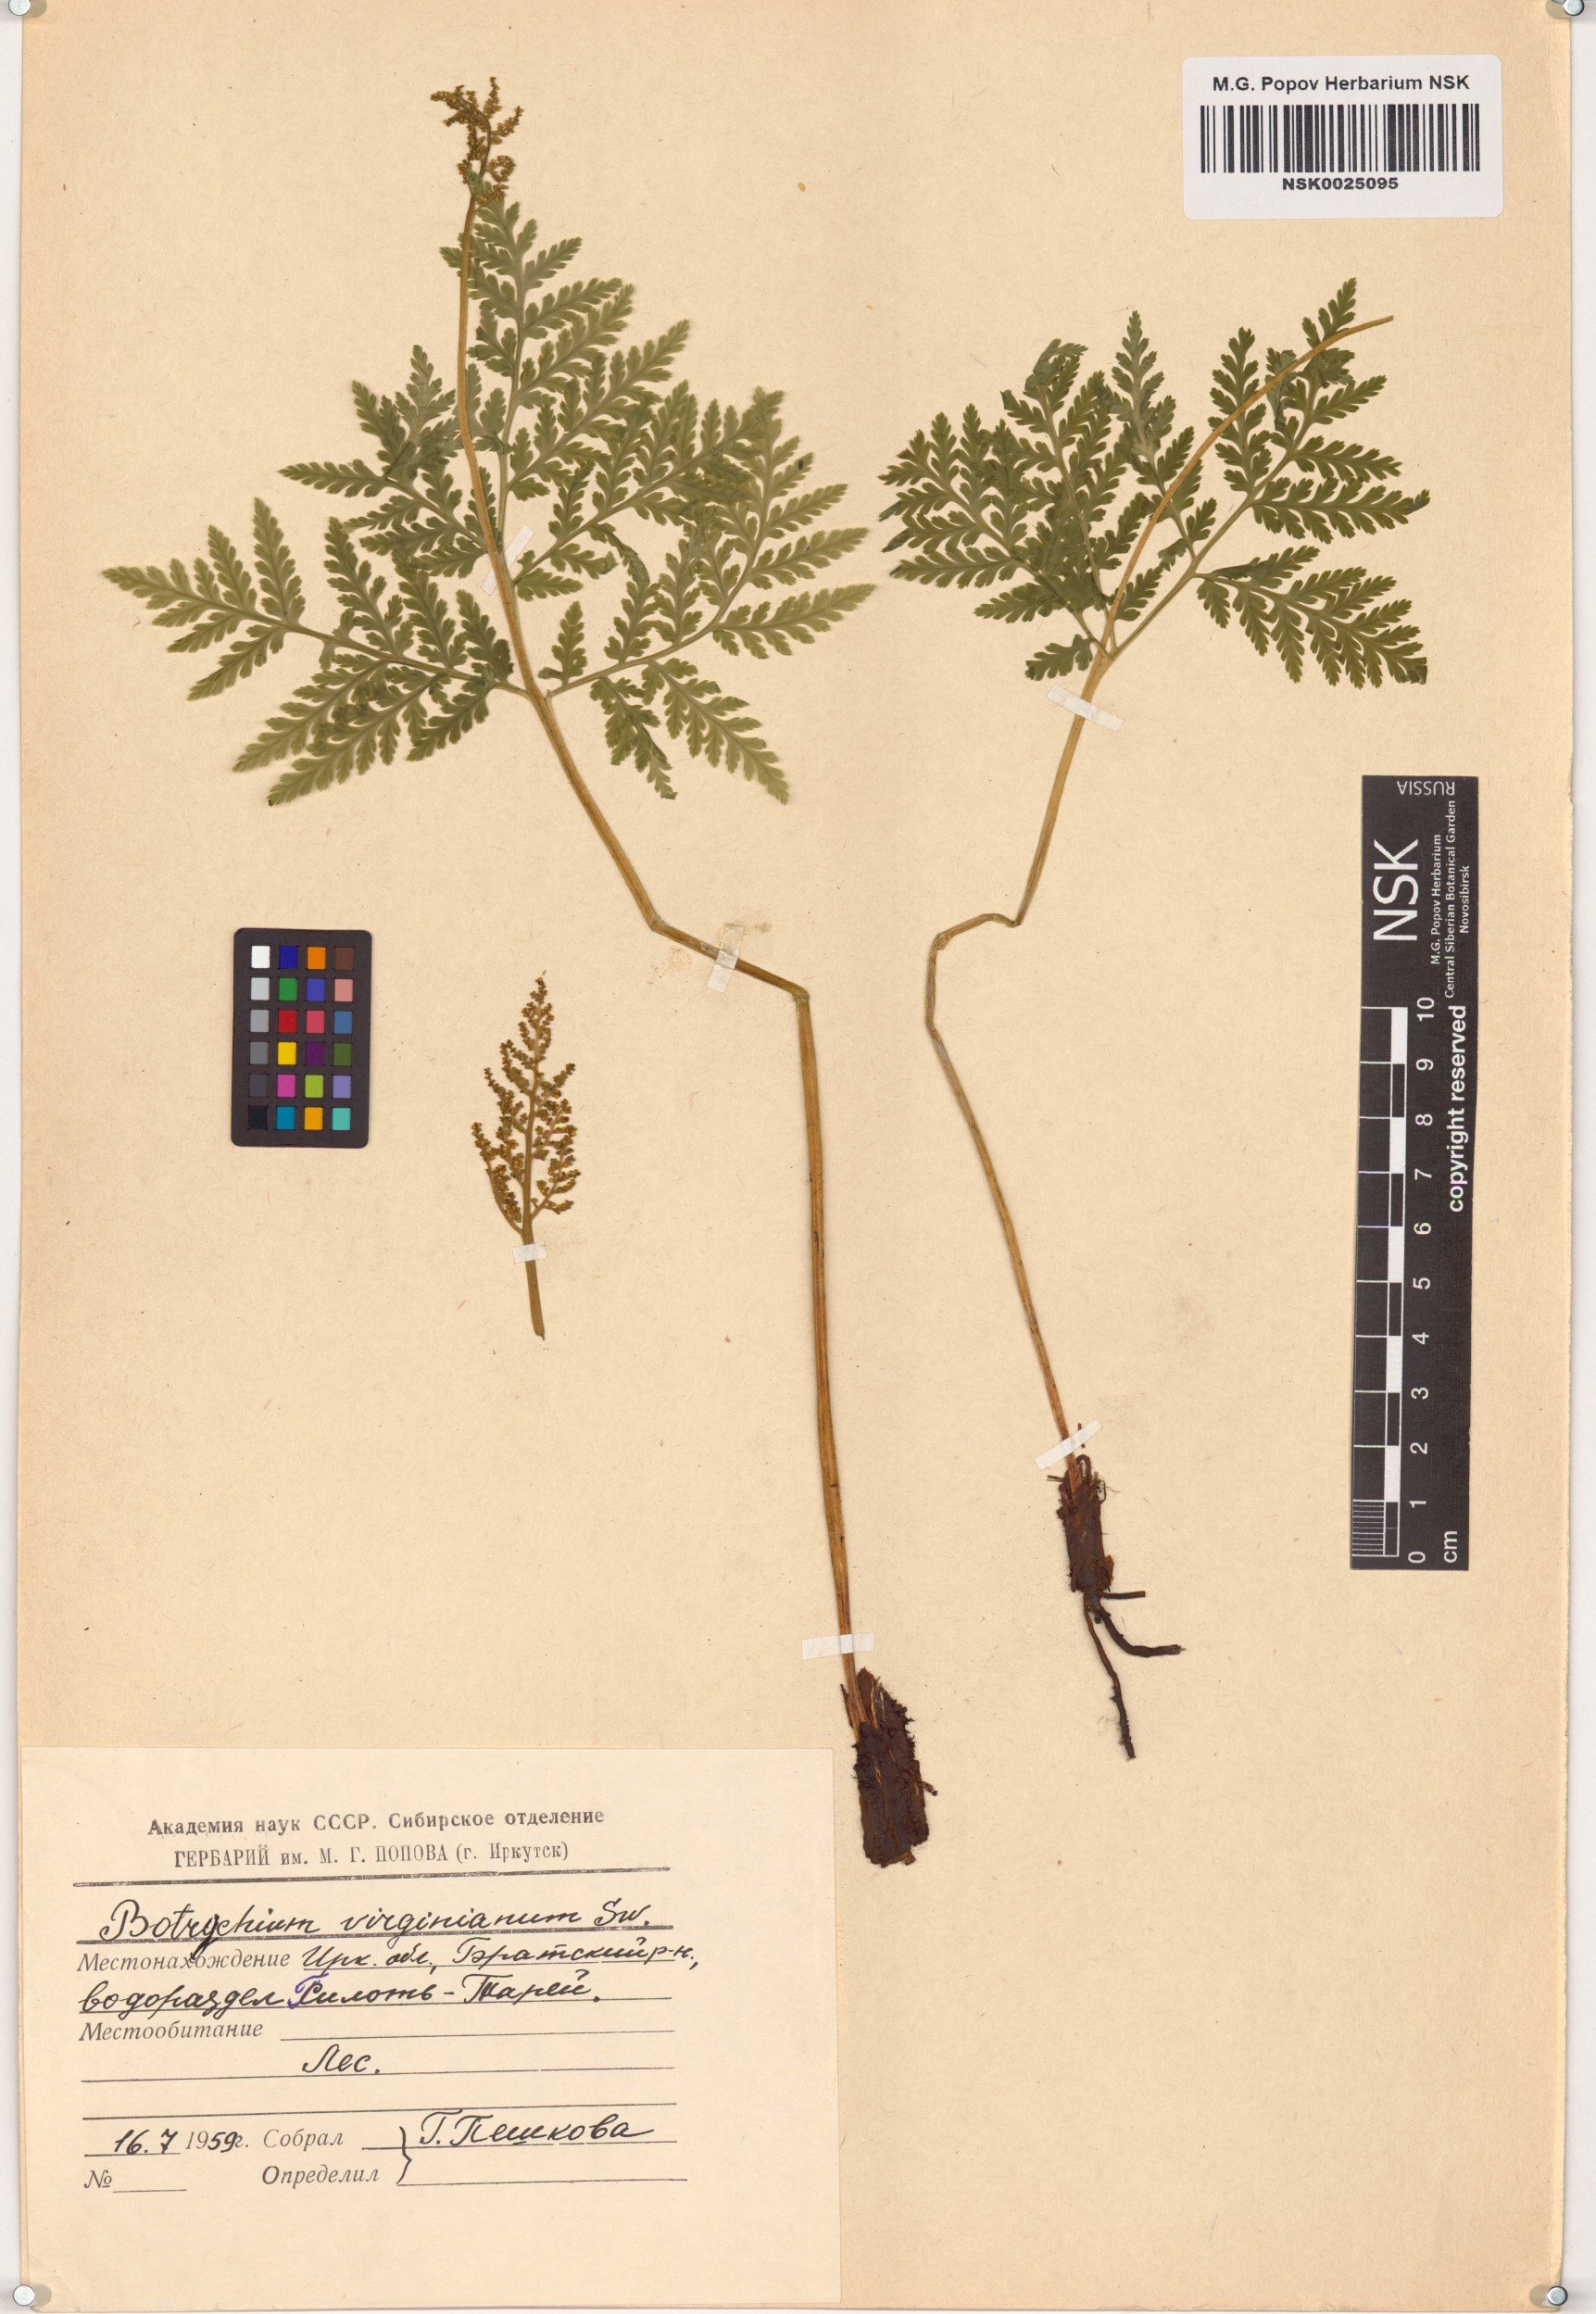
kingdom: Plantae
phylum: Tracheophyta
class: Polypodiopsida
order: Ophioglossales
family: Ophioglossaceae
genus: Botrypus
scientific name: Botrypus virginianus
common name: Common grapefern
